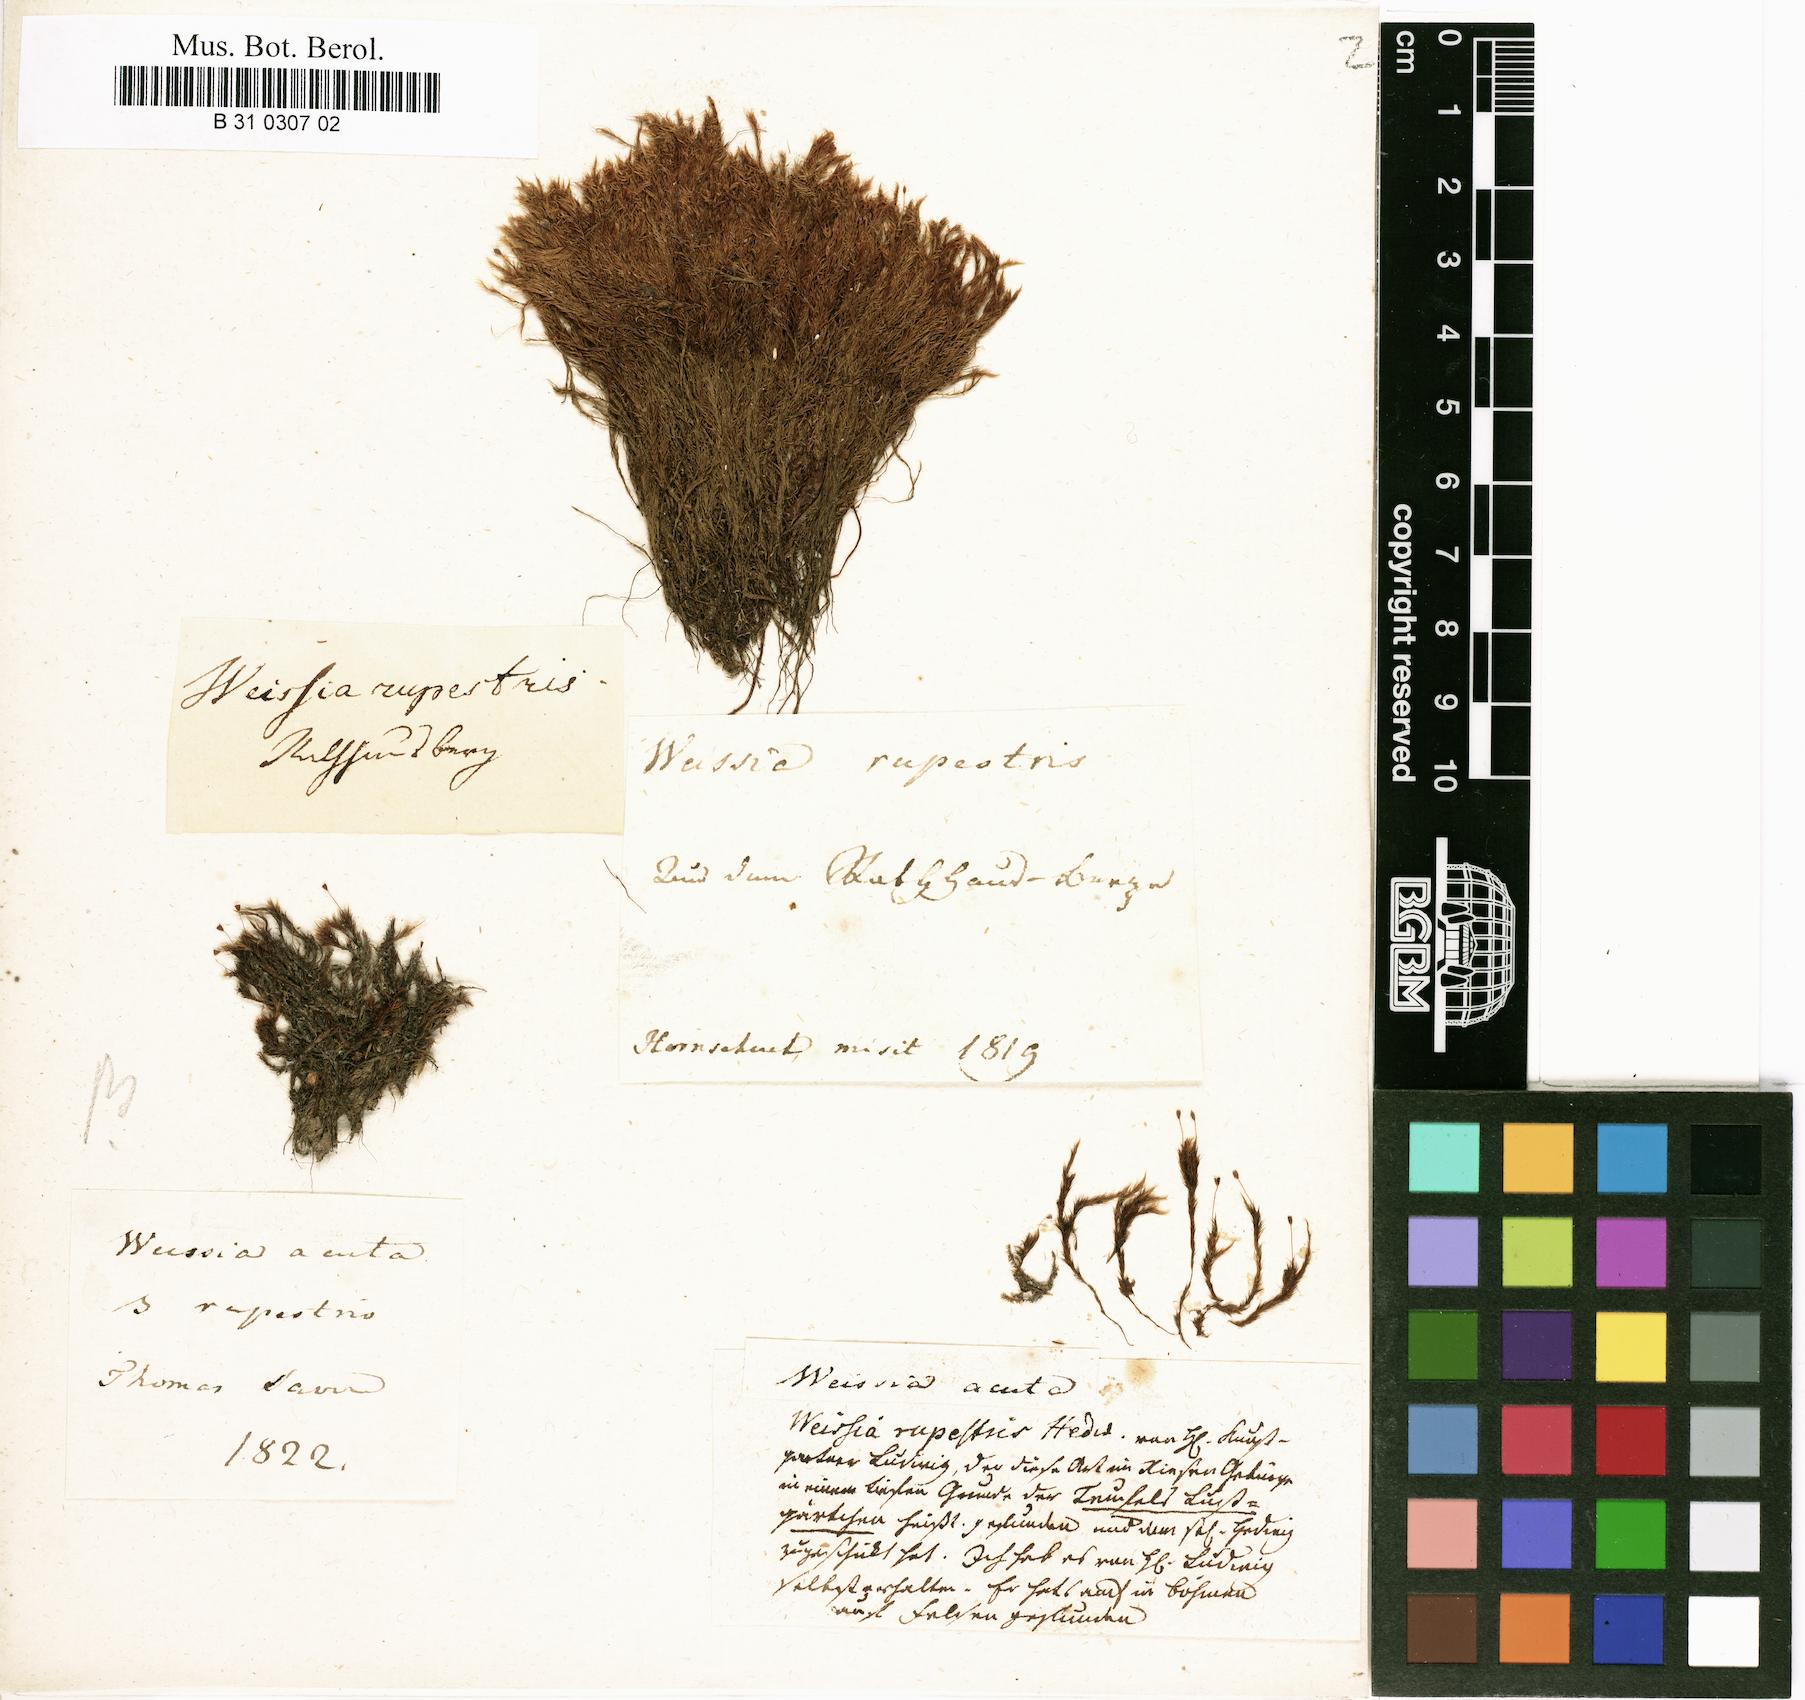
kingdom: Plantae
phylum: Bryophyta
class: Bryopsida
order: Grimmiales
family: Seligeriaceae
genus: Blindia
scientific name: Blindia acuta
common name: Sharp-leaved blind's moss
